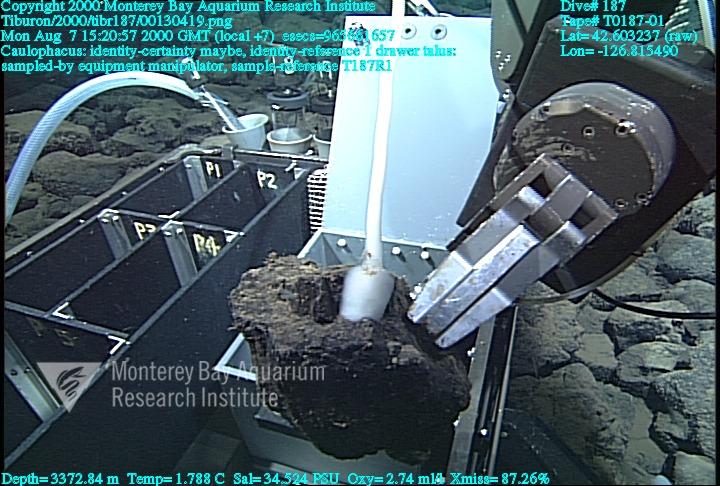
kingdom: Animalia
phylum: Porifera
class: Hexactinellida
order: Lyssacinosida
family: Rossellidae
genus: Caulophacus
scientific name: Caulophacus
